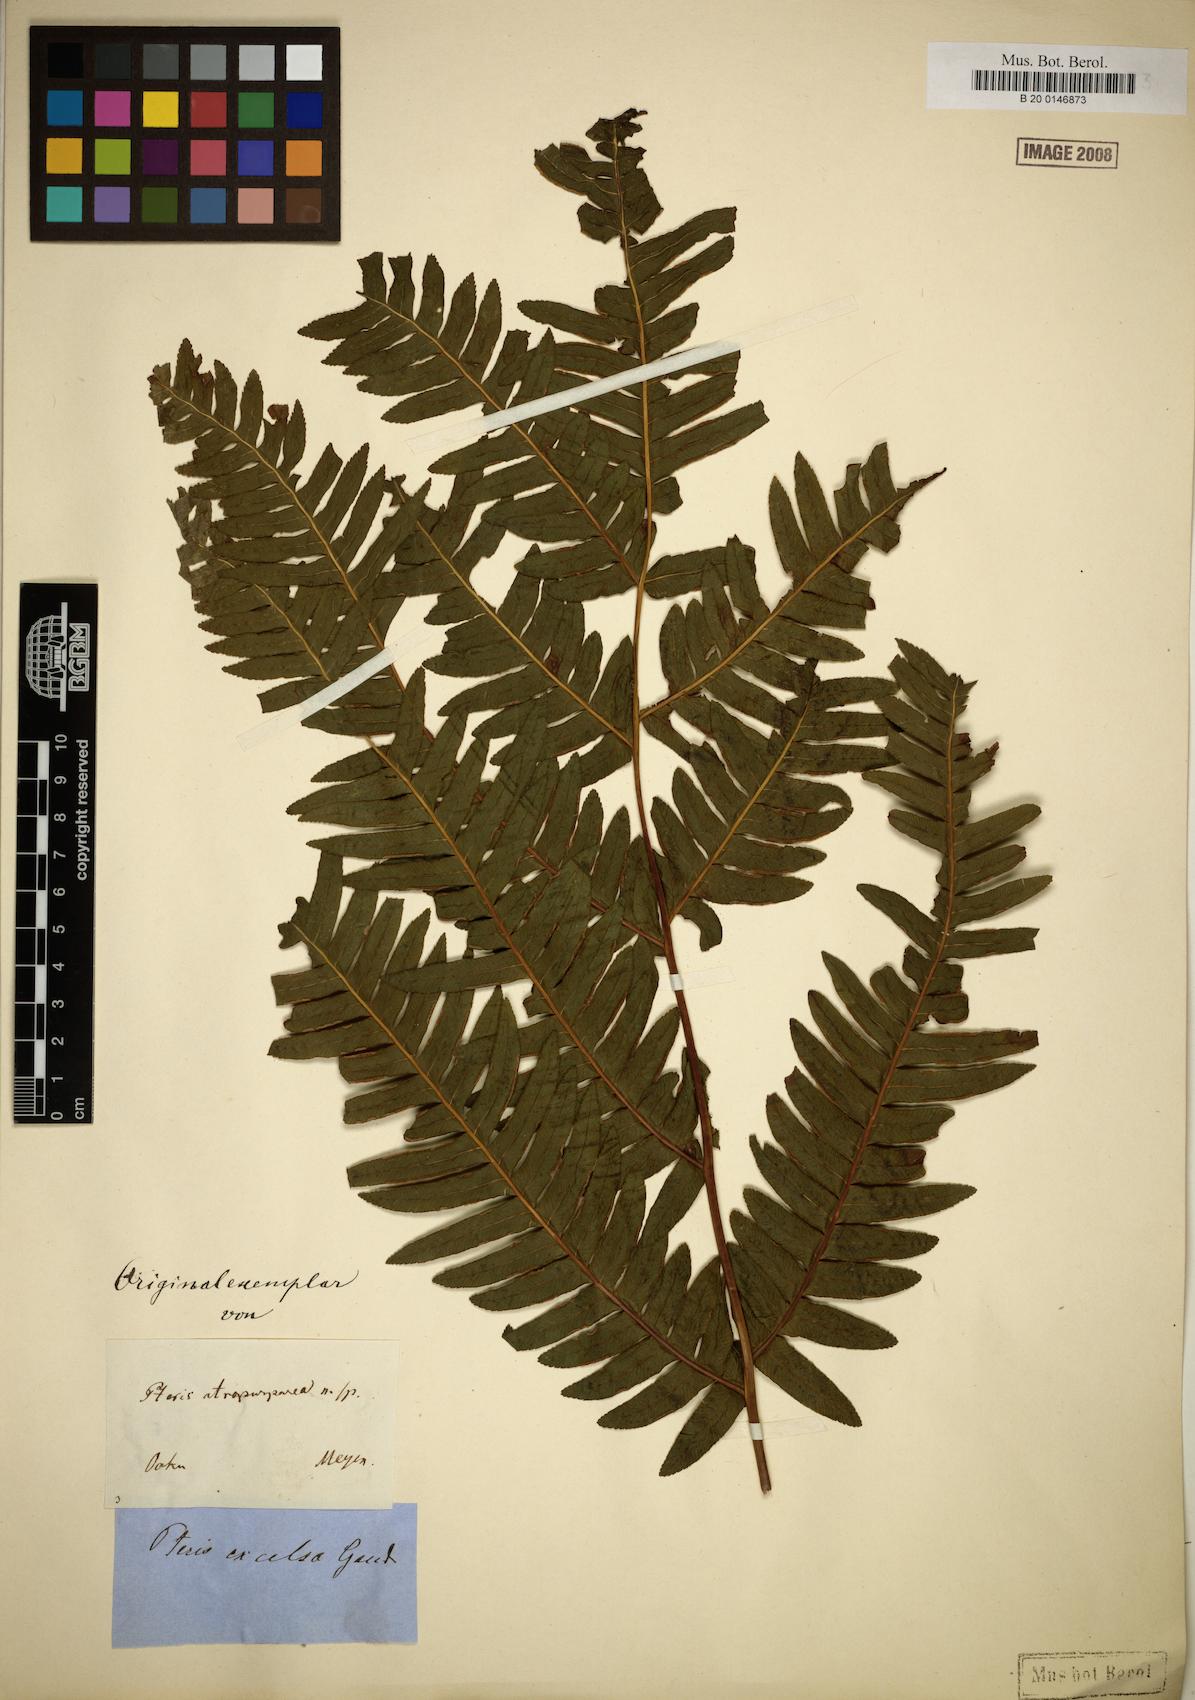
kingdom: Plantae
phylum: Tracheophyta
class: Polypodiopsida
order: Polypodiales
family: Pteridaceae
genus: Pteris
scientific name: Pteris terminalis
